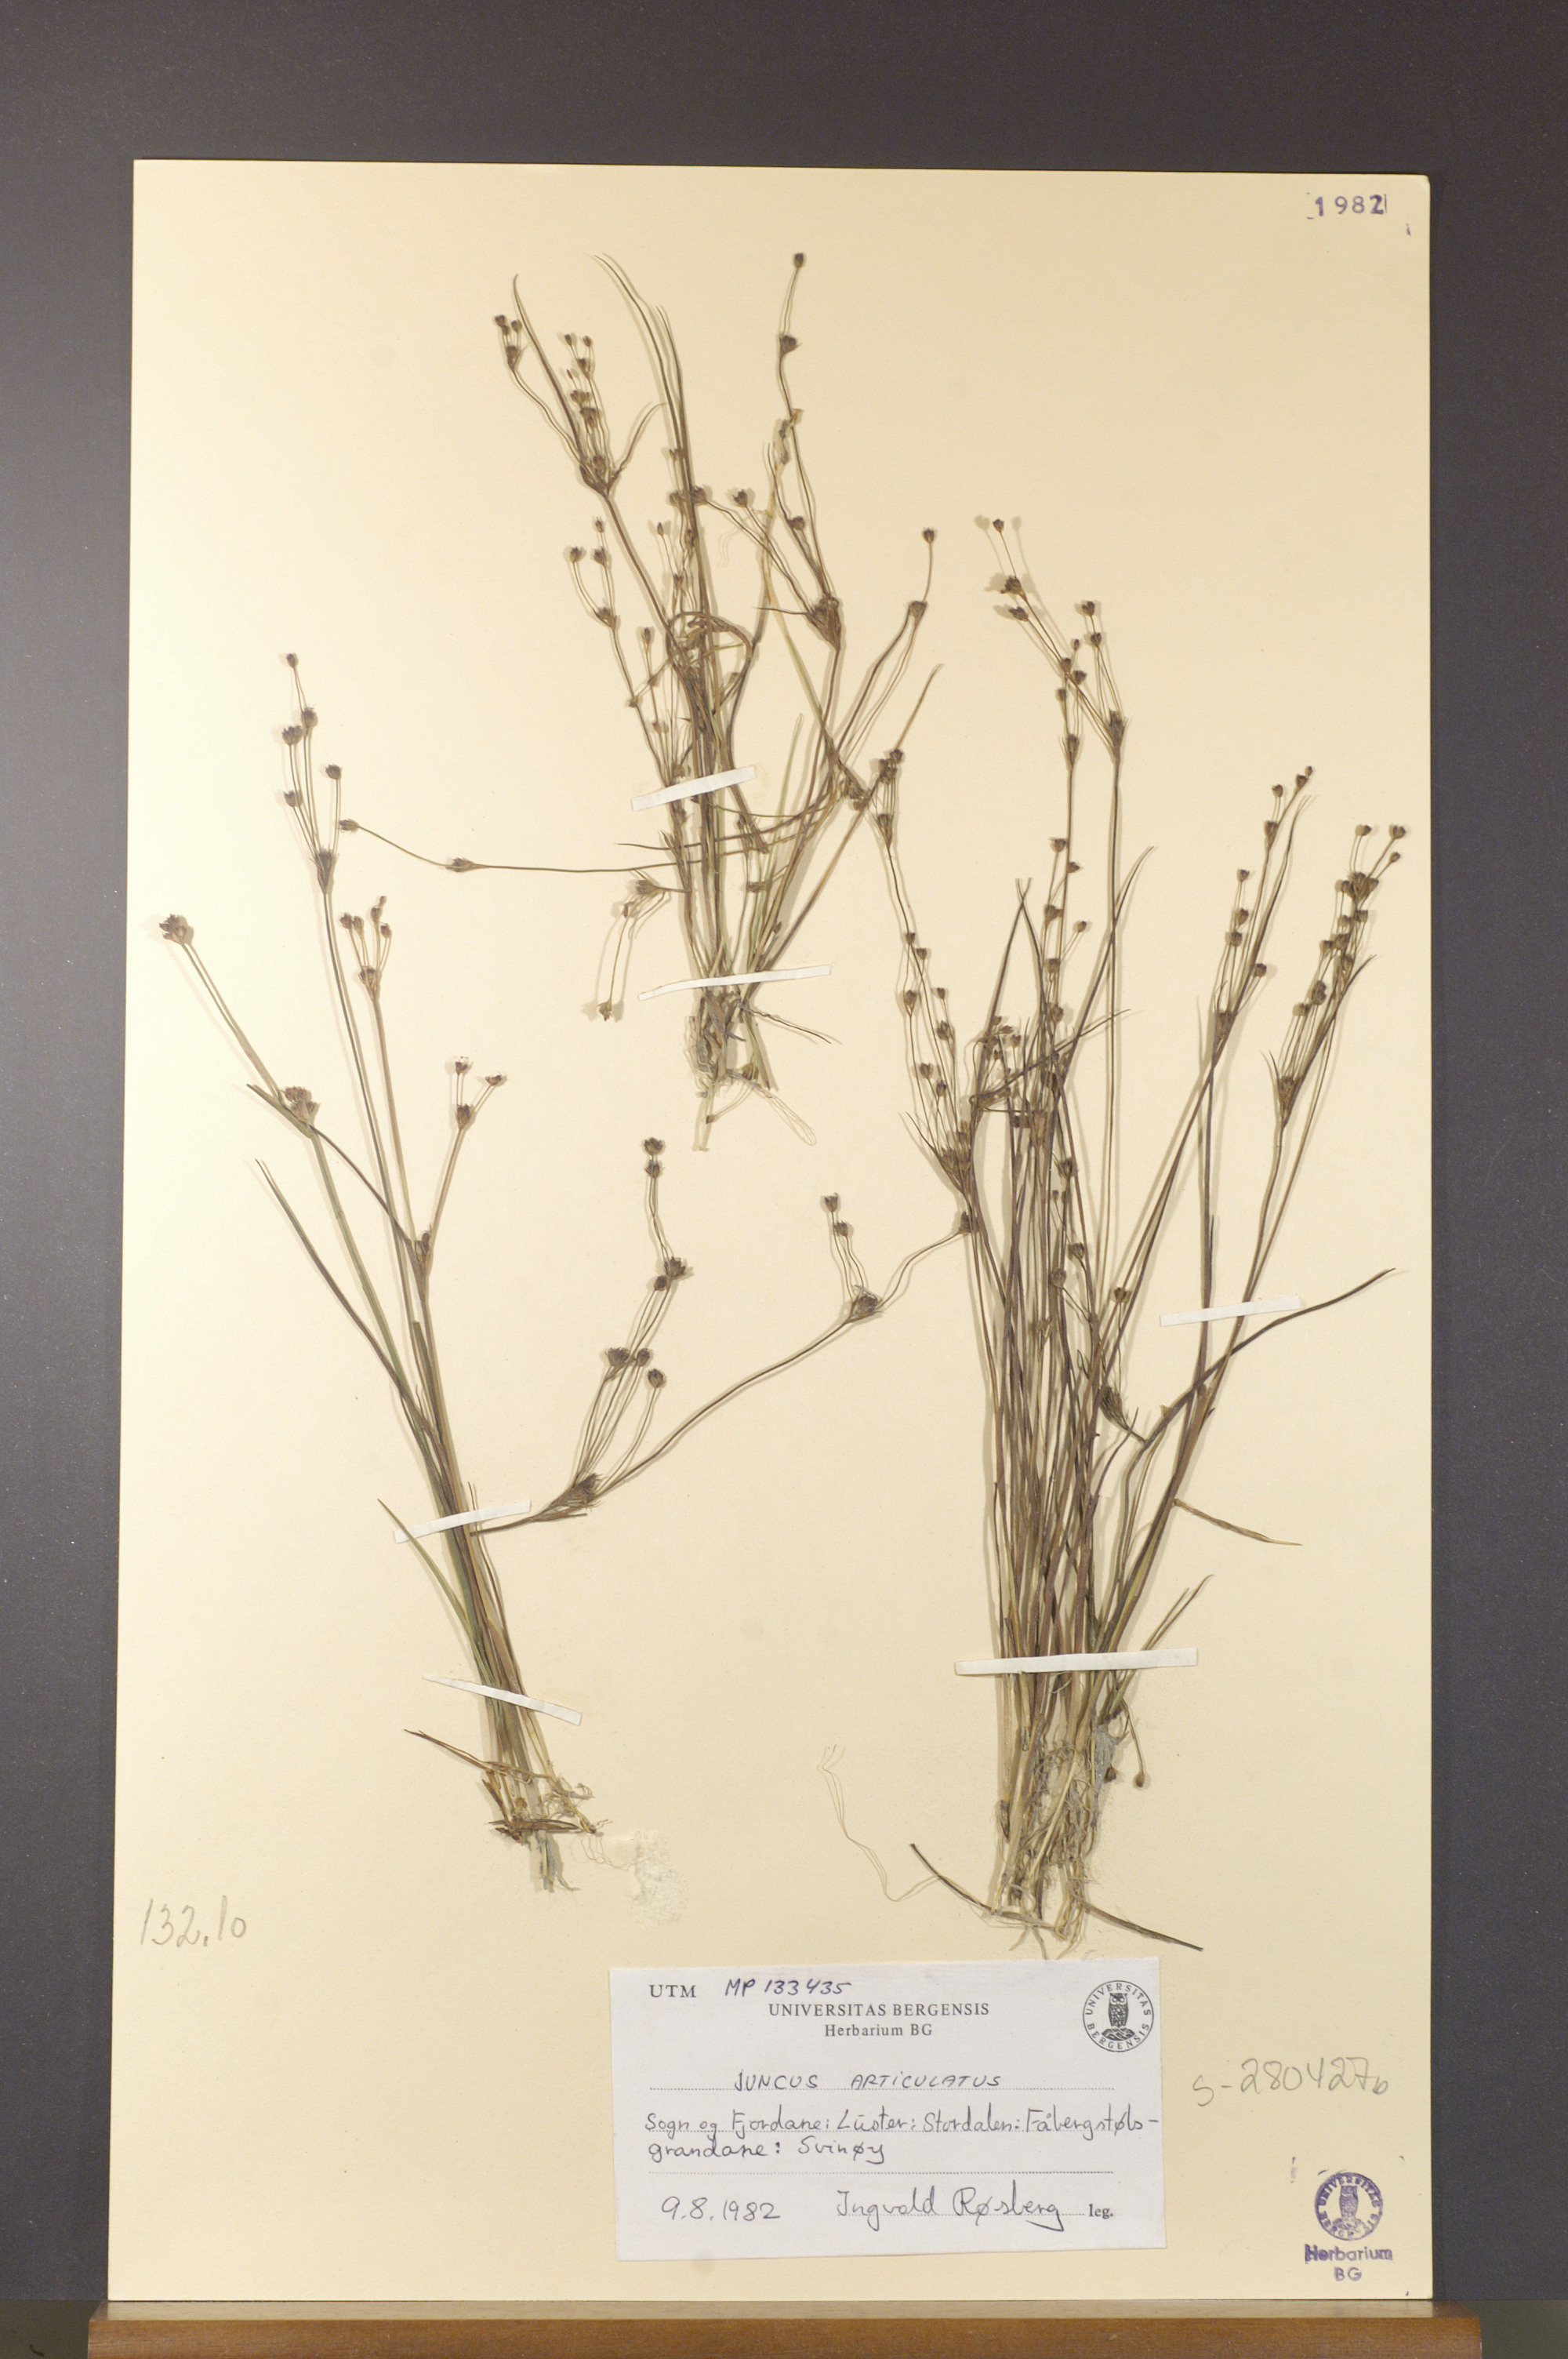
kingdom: Plantae
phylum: Tracheophyta
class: Liliopsida
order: Poales
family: Juncaceae
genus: Juncus
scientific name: Juncus alpinoarticulatus
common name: Alpine rush
